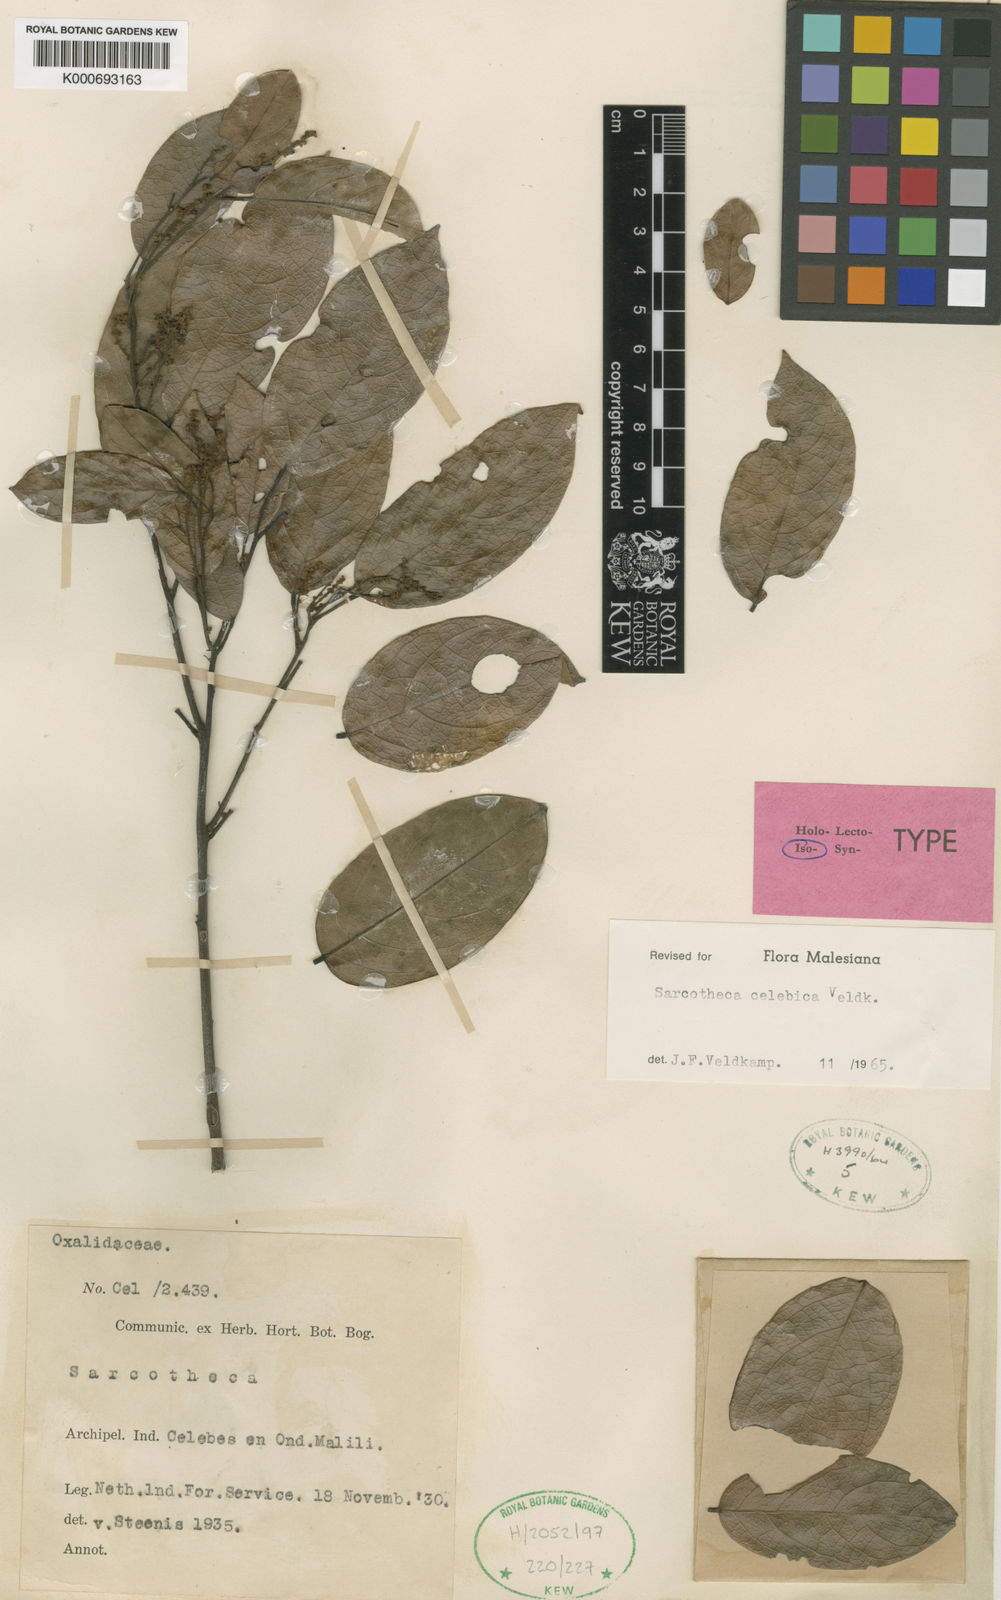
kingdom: Plantae
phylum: Tracheophyta
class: Magnoliopsida
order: Oxalidales
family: Oxalidaceae
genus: Sarcotheca
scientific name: Sarcotheca celebica
